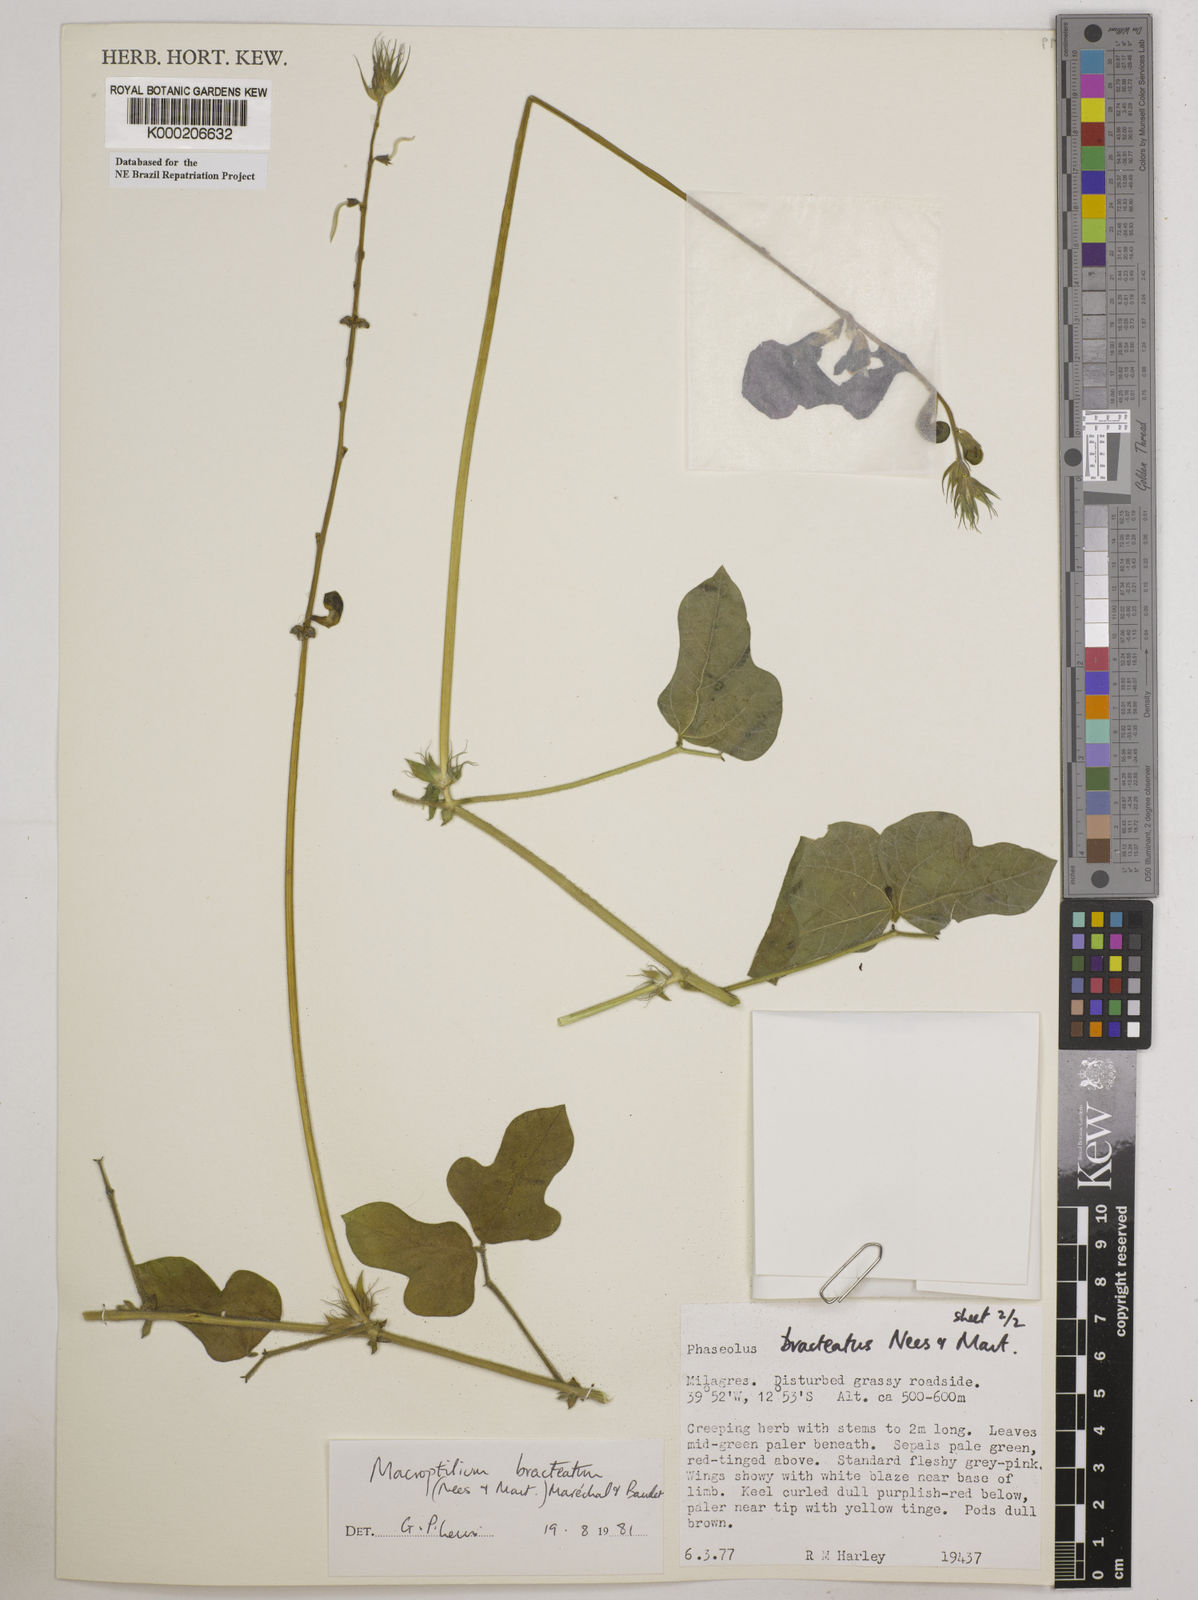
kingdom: Plantae
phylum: Tracheophyta
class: Magnoliopsida
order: Fabales
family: Fabaceae
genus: Macroptilium
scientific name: Macroptilium
